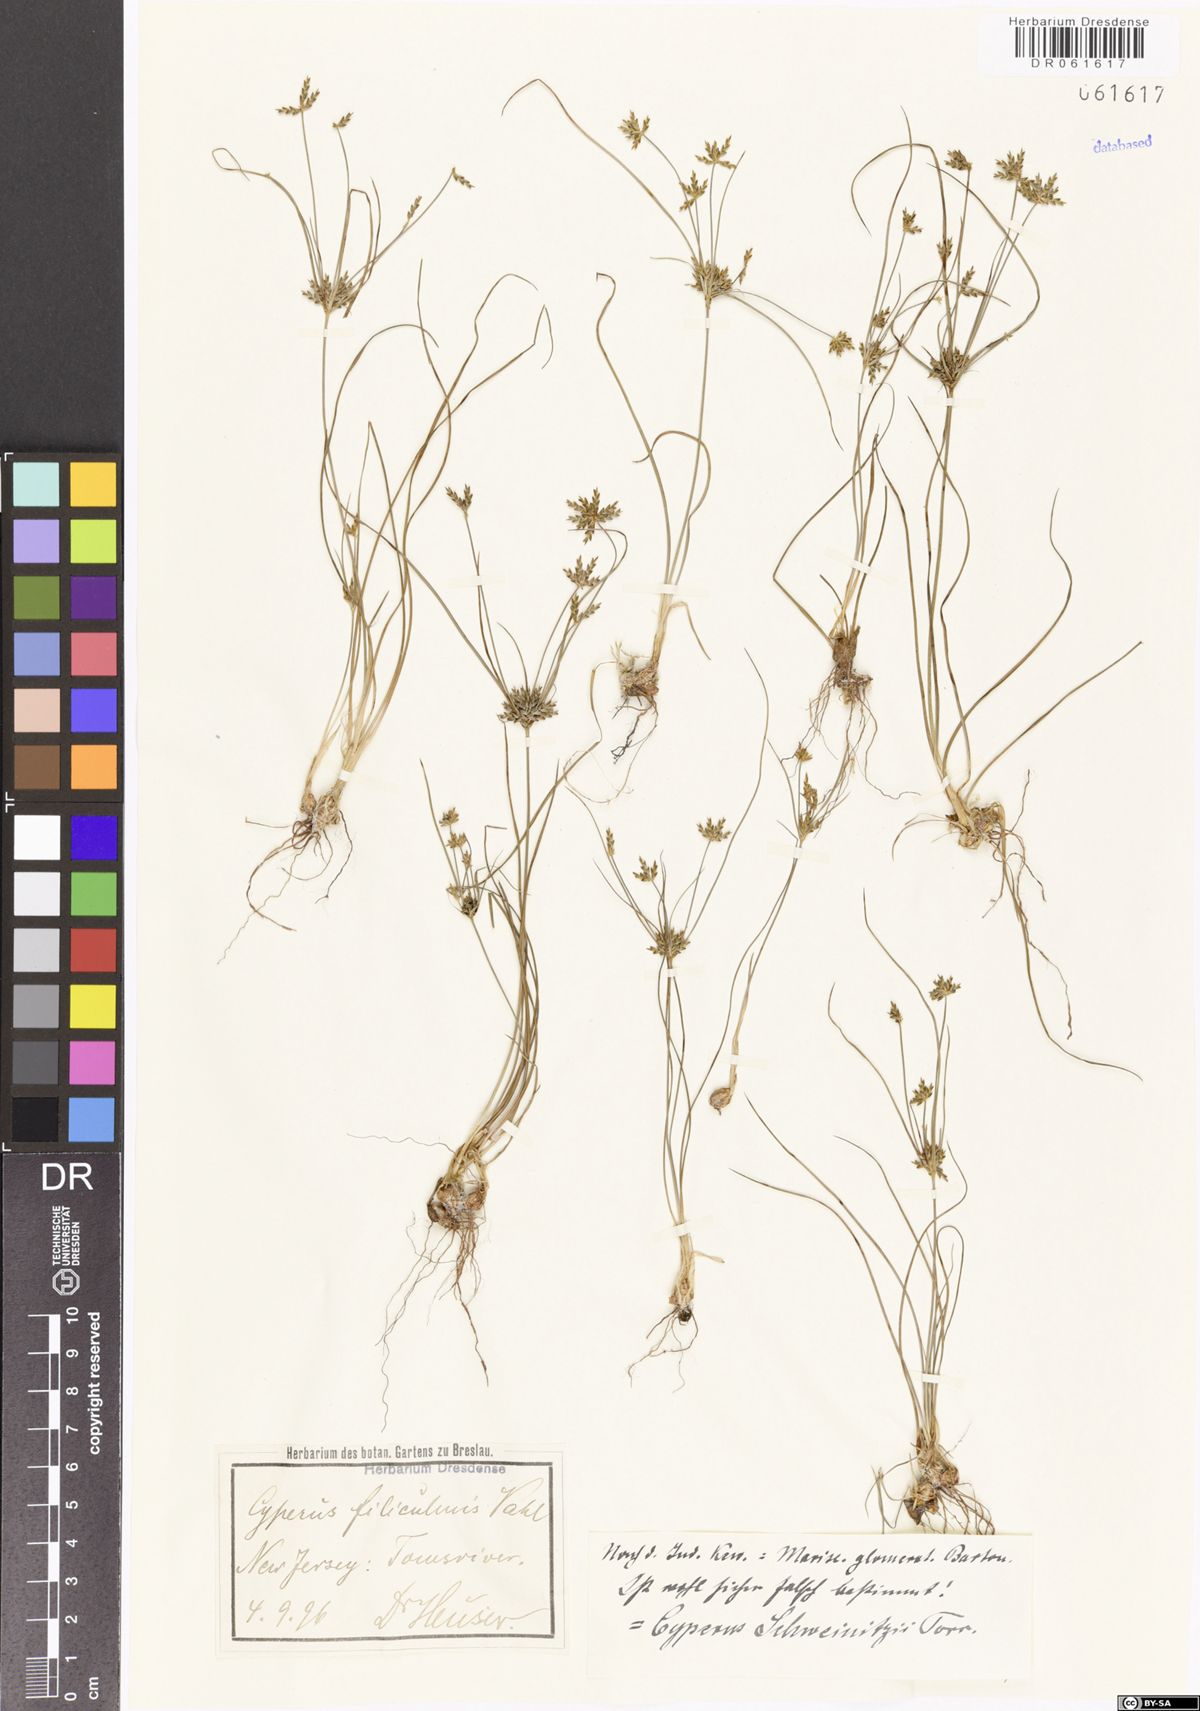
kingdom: Plantae
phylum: Tracheophyta
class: Liliopsida
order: Poales
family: Cyperaceae
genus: Cyperus
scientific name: Cyperus schweinitzii
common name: Schweinitz's cyperus
